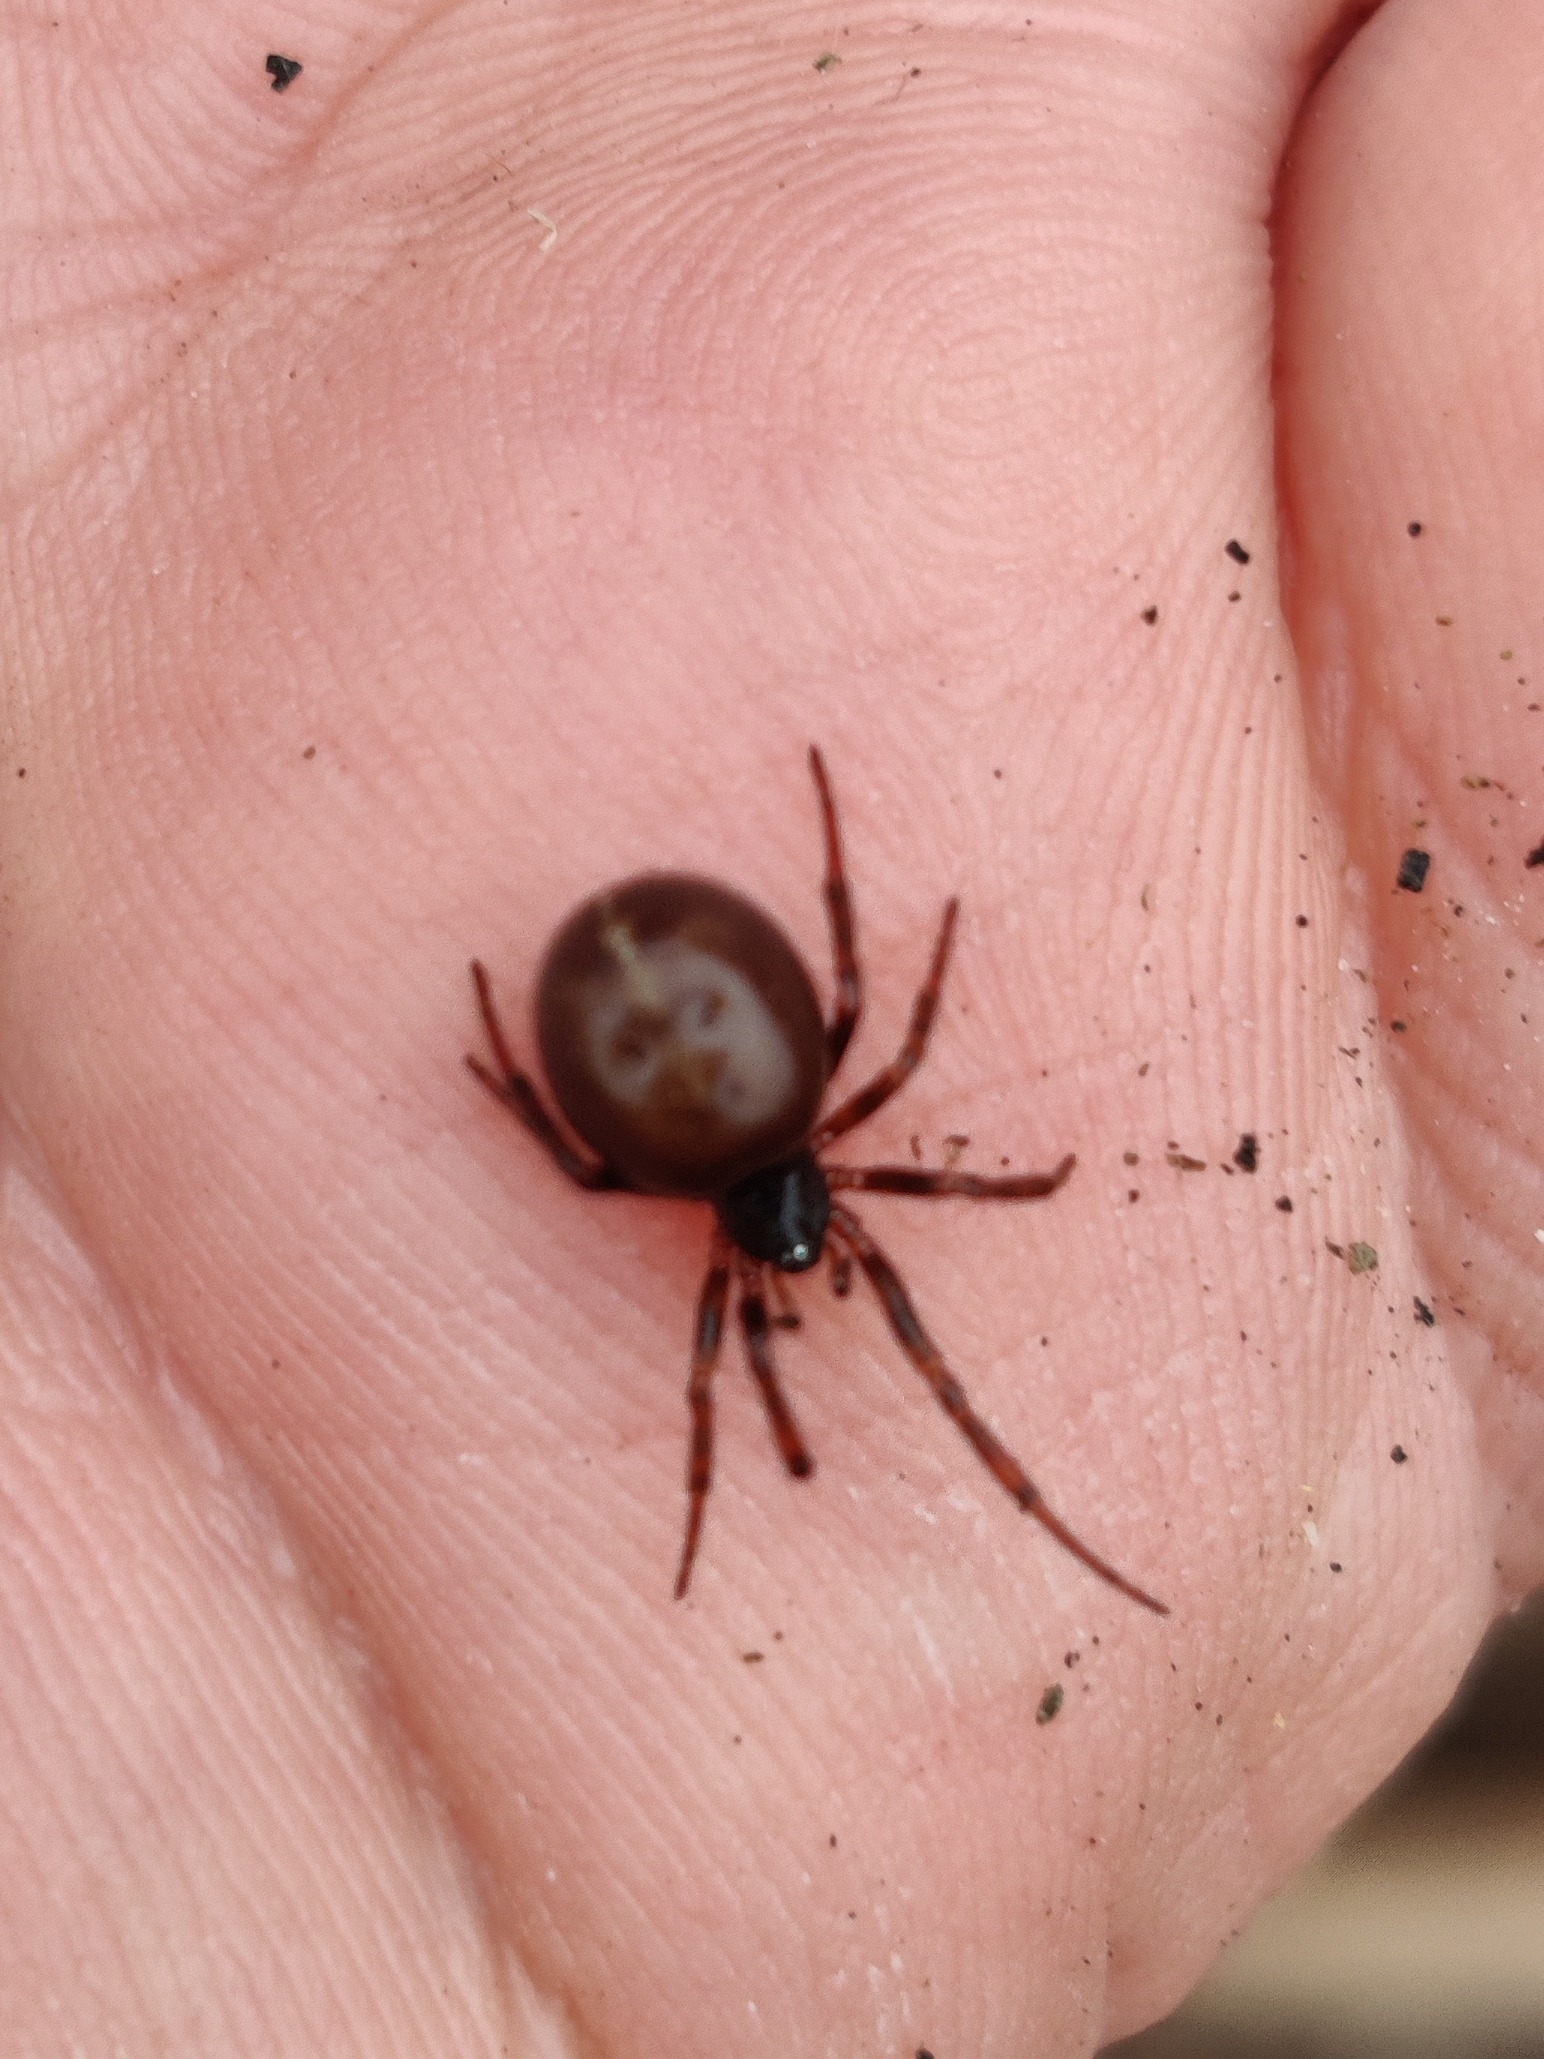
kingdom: Animalia
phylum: Arthropoda
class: Arachnida
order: Araneae
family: Theridiidae
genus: Steatoda
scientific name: Steatoda bipunctata
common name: Fedtedderkop
